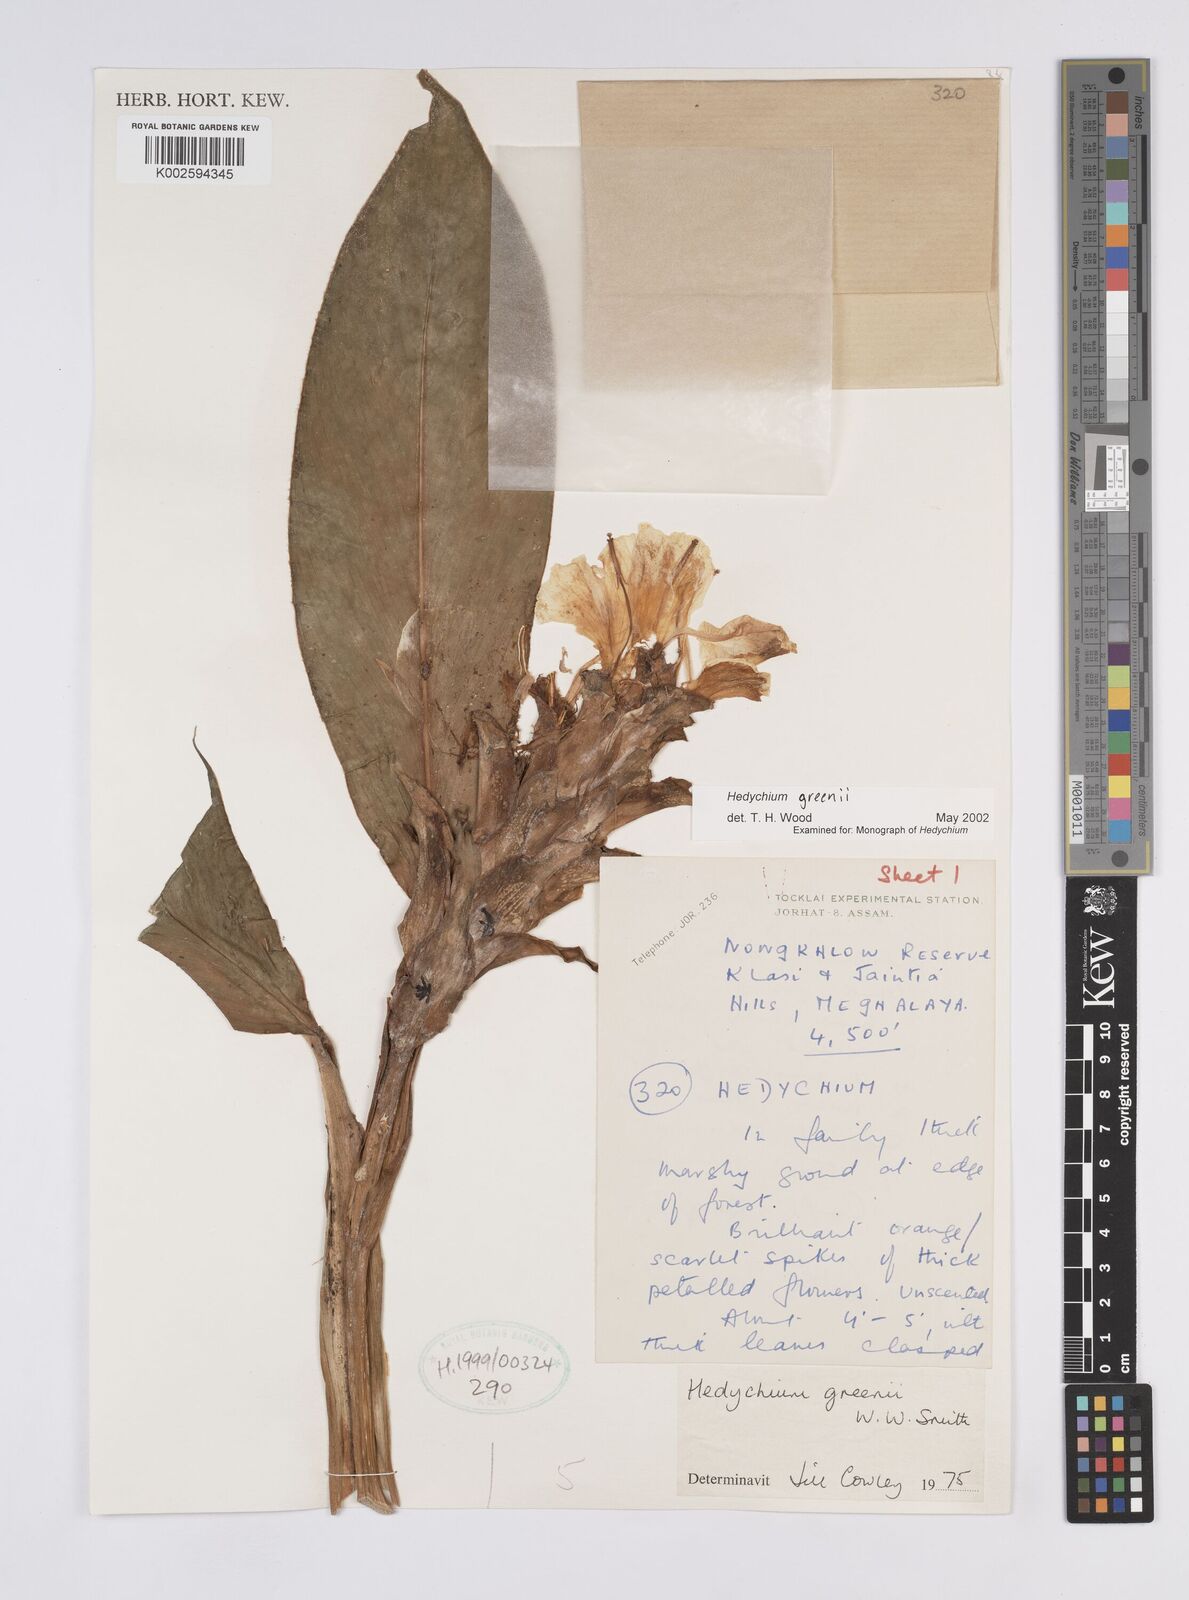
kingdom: Plantae
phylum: Tracheophyta
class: Liliopsida
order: Zingiberales
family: Zingiberaceae
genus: Hedychium
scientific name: Hedychium greenii
